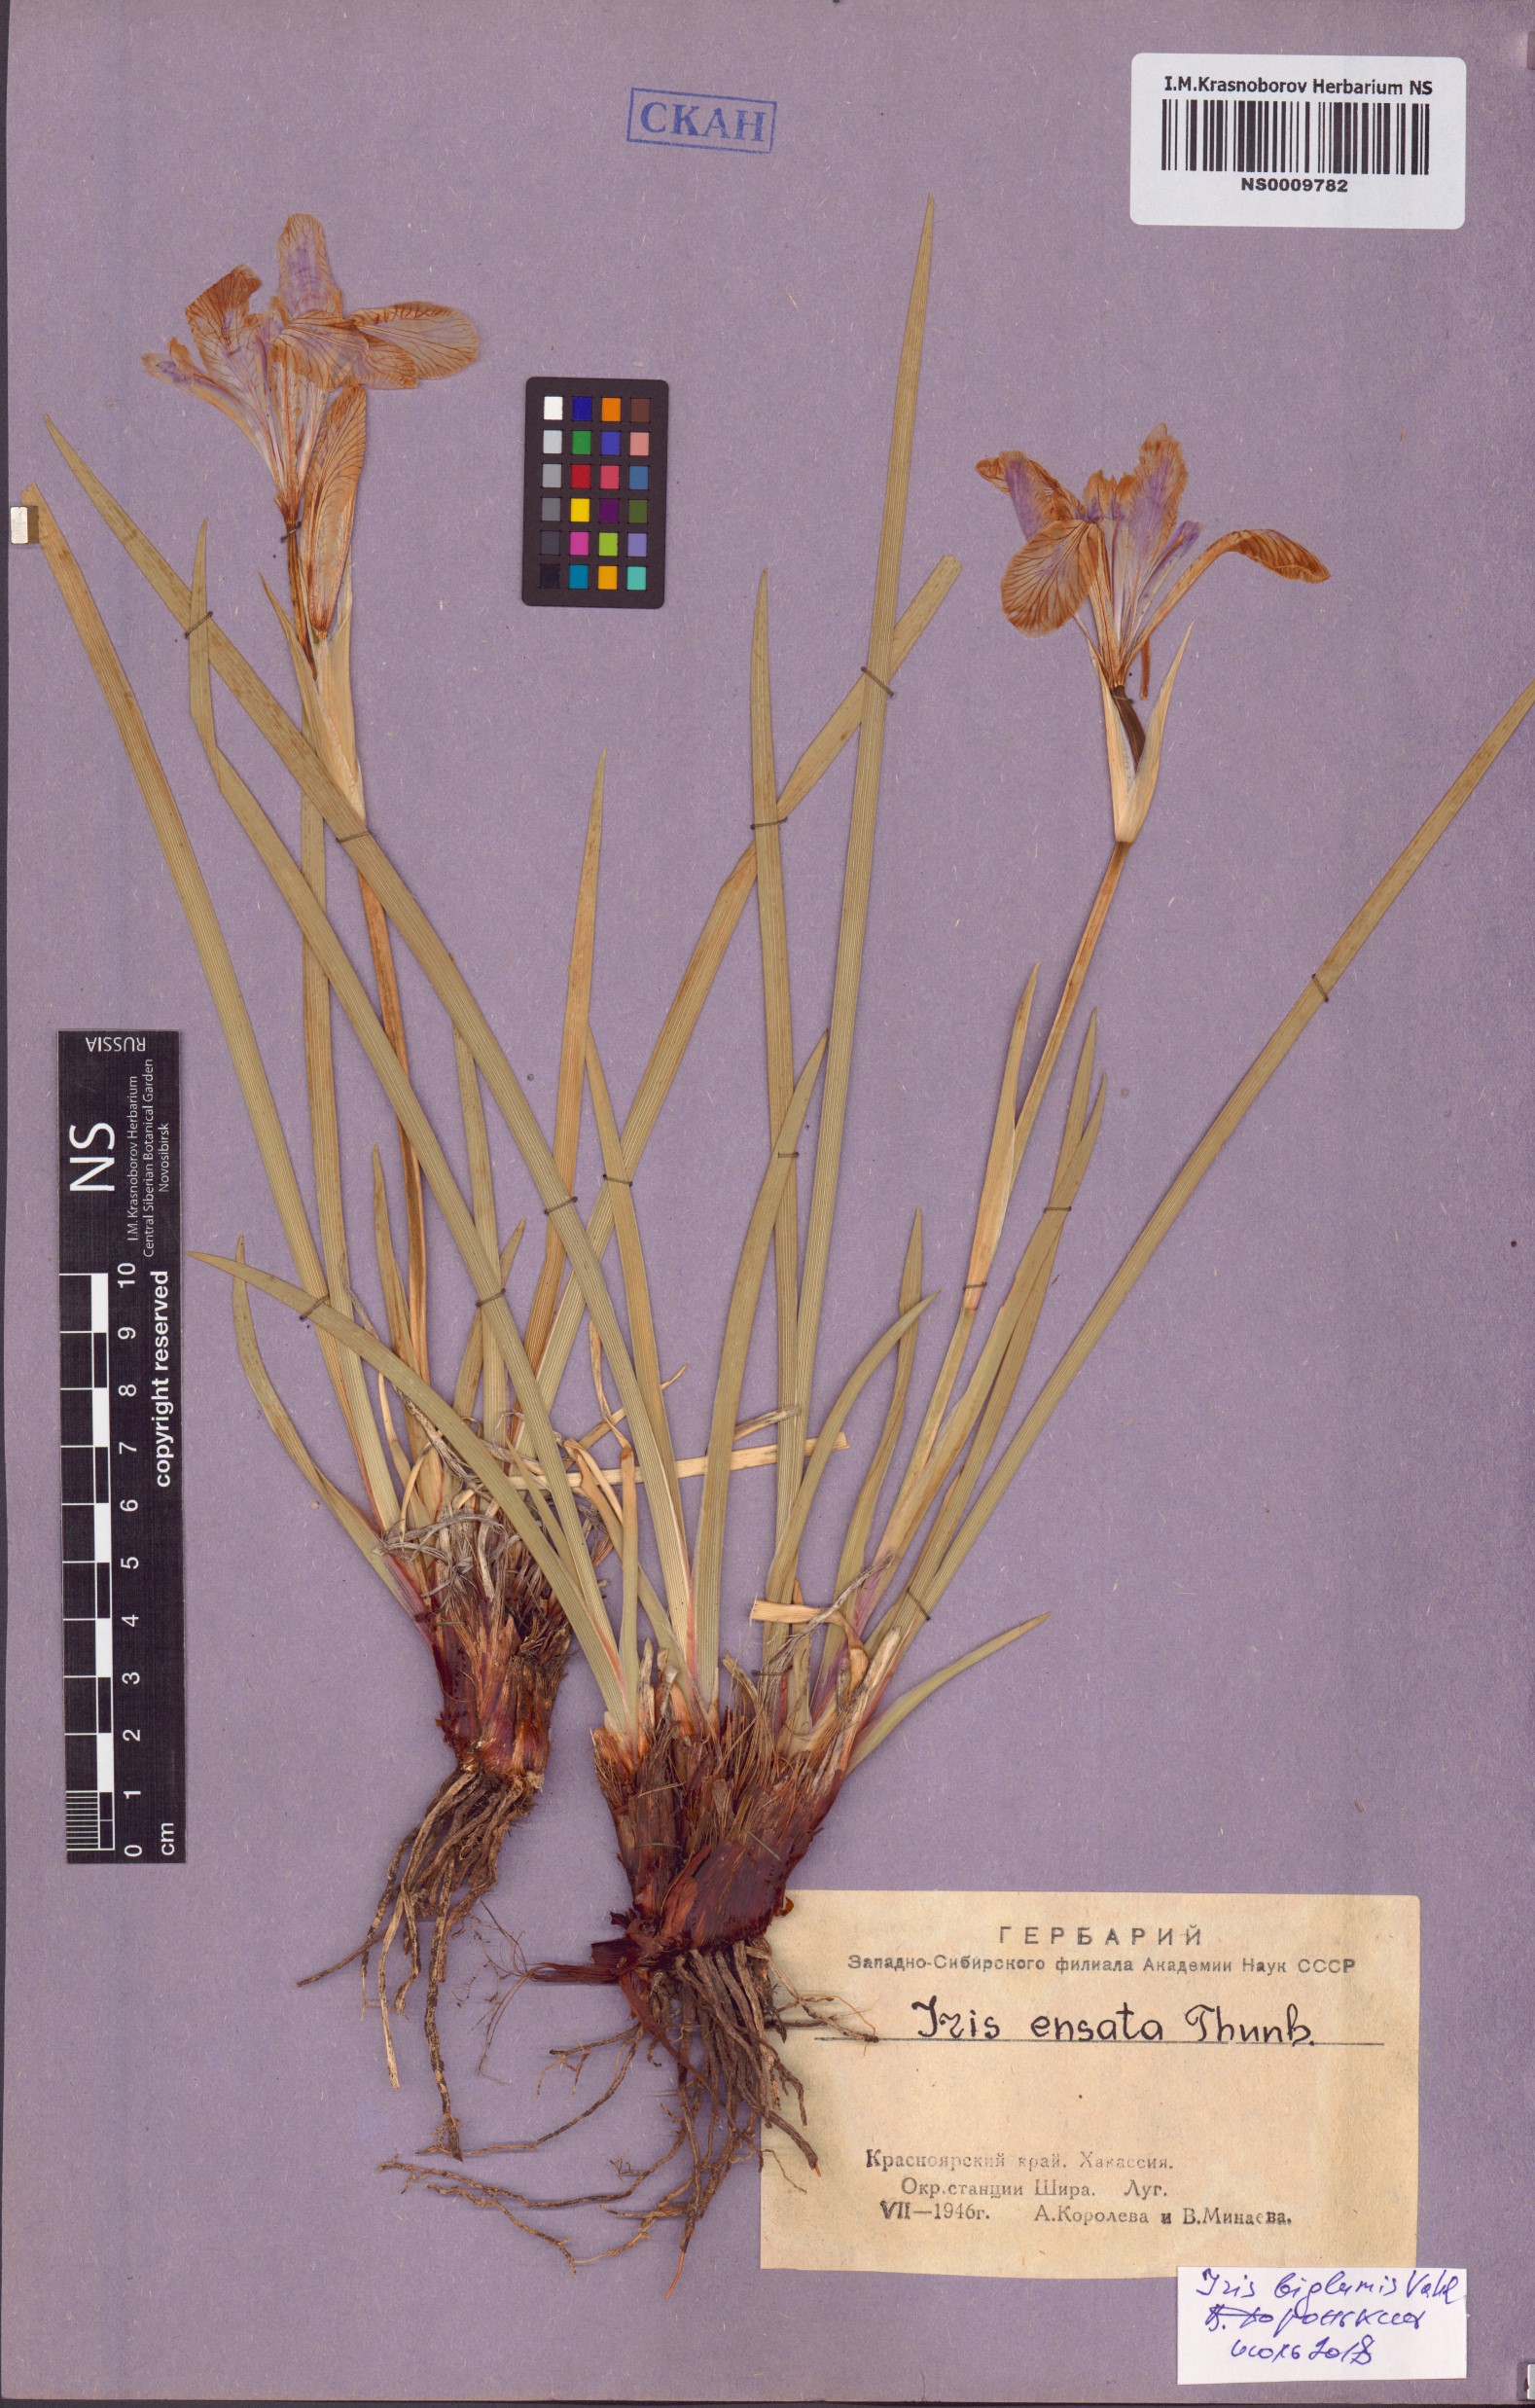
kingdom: Plantae
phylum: Tracheophyta
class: Liliopsida
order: Asparagales
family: Iridaceae
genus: Iris
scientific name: Iris lactea
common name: White-flower chinese iris
